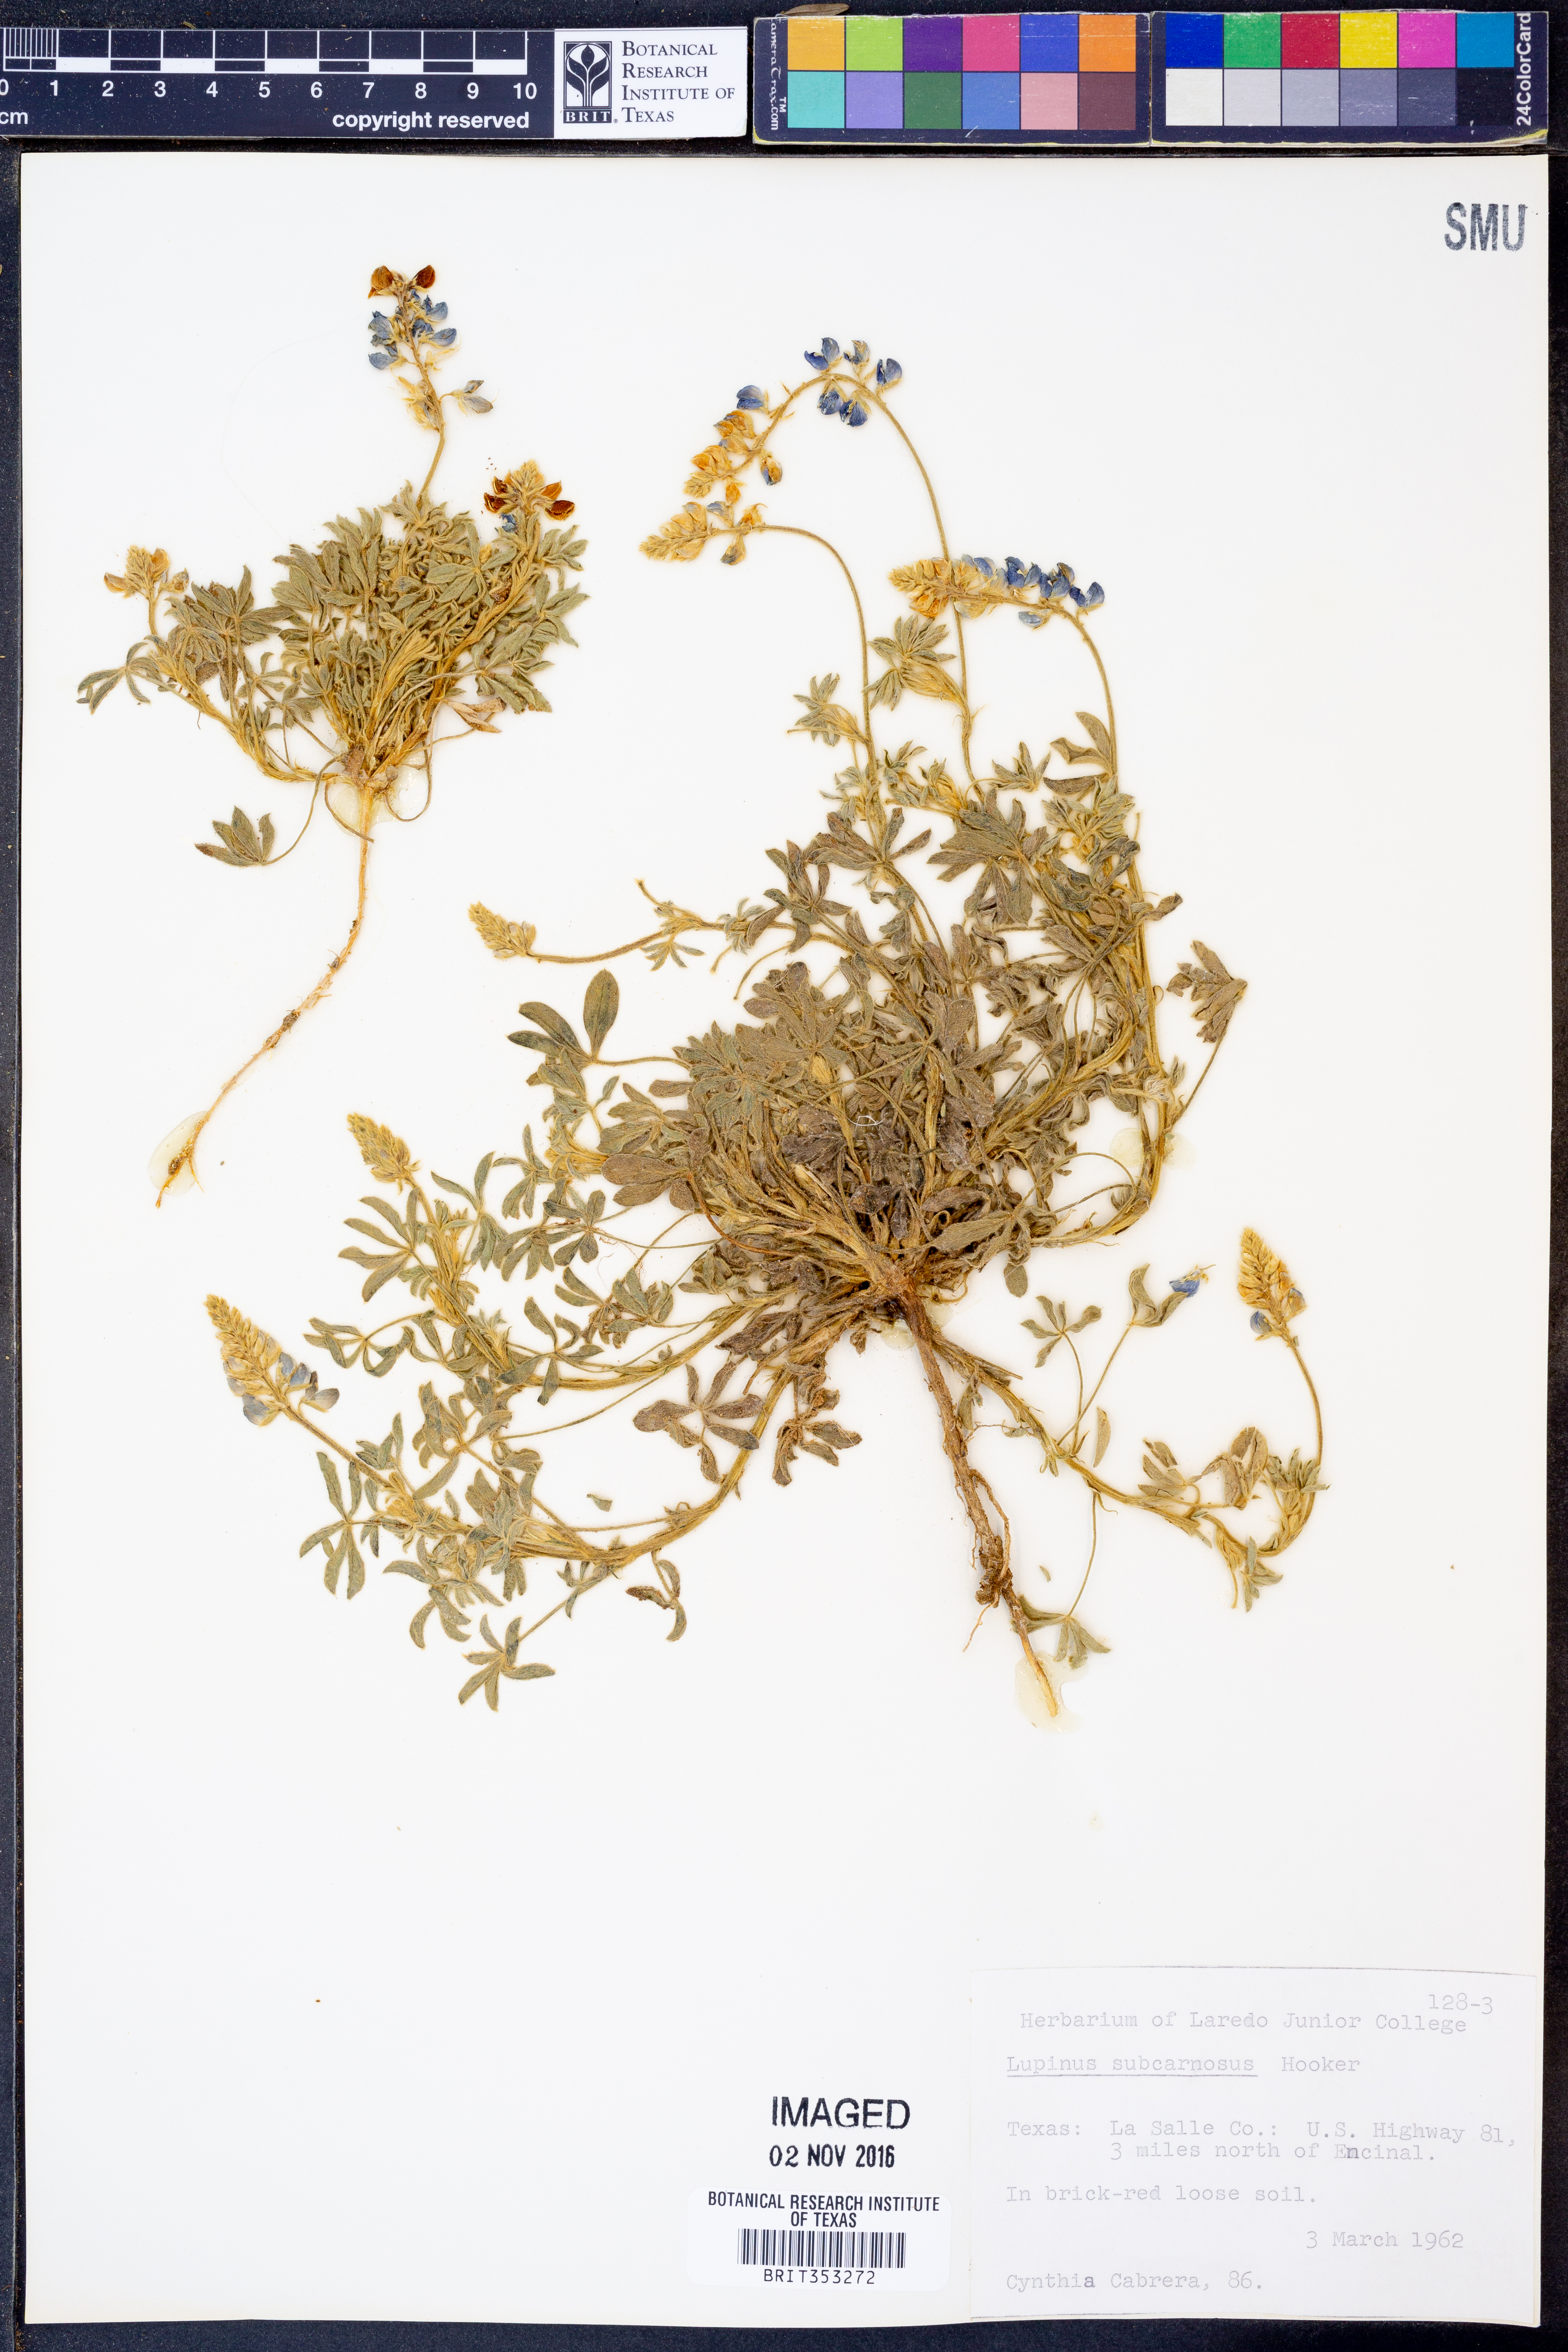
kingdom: Plantae
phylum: Tracheophyta
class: Magnoliopsida
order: Fabales
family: Fabaceae
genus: Lupinus
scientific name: Lupinus subcarnosus
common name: Texas bluebonnet
